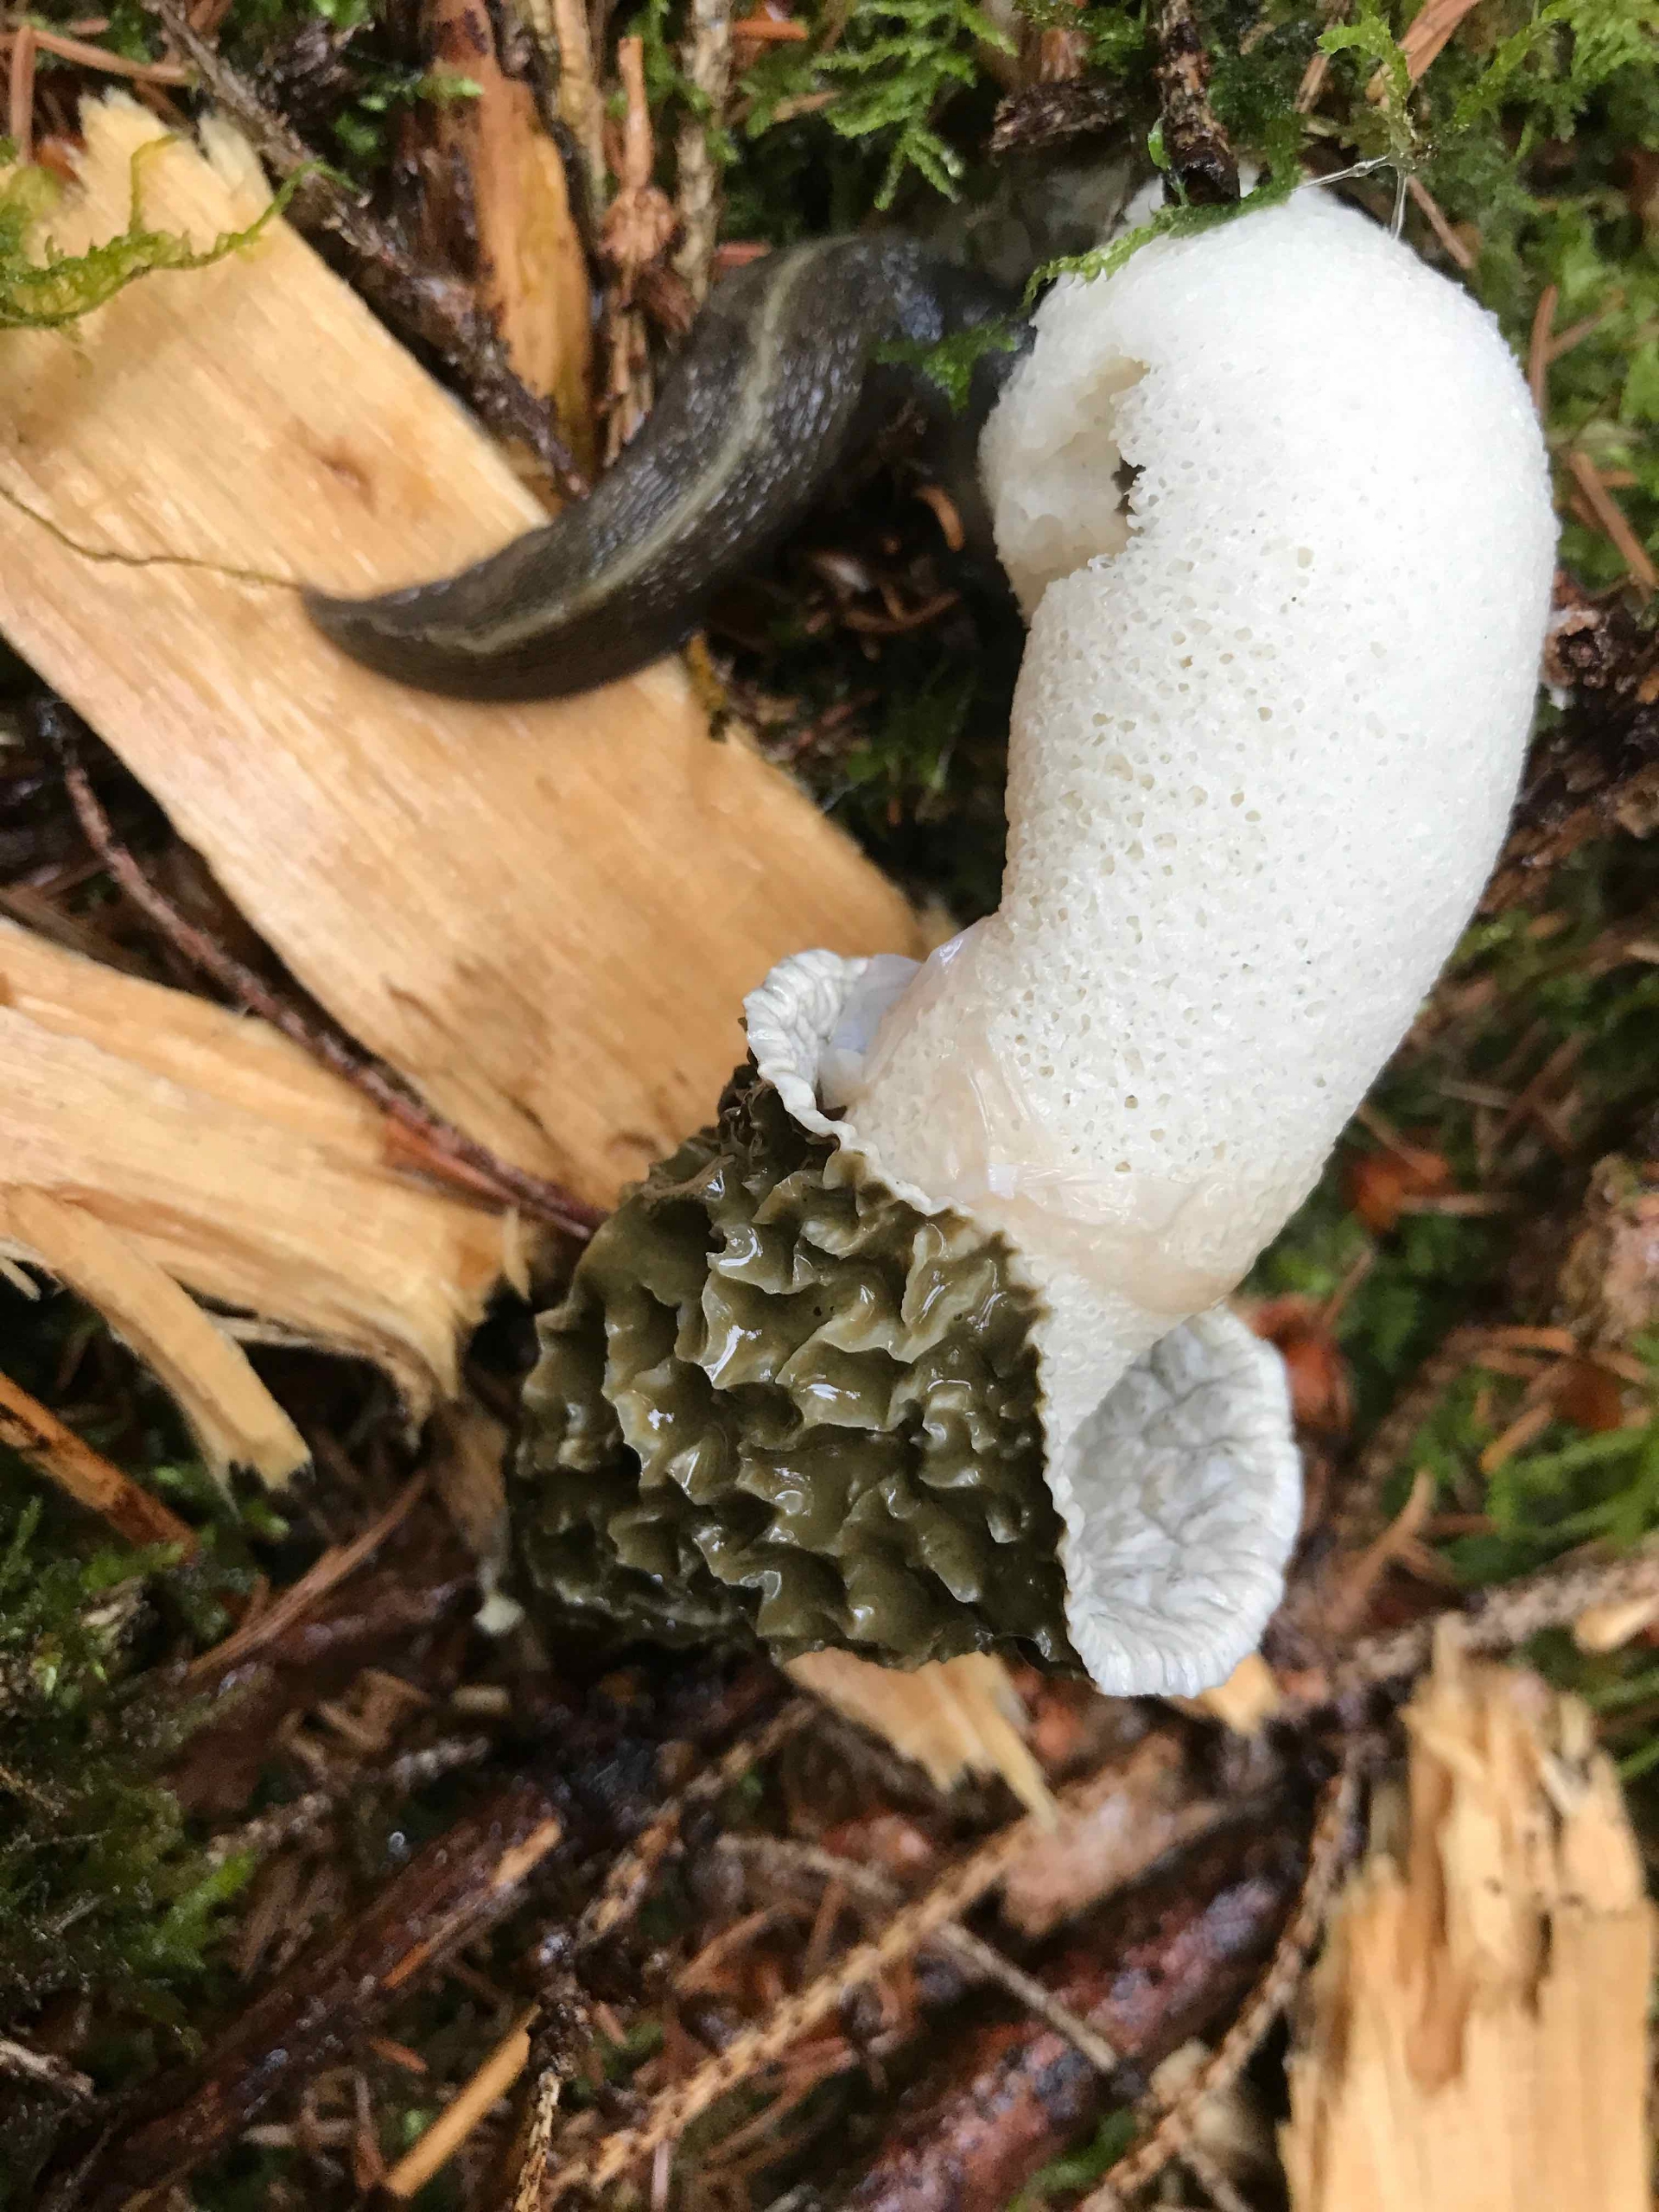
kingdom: Animalia
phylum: Mollusca
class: Gastropoda
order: Stylommatophora
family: Limacidae
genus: Lehmannia
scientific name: Lehmannia marginata
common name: Bøgesnegl
